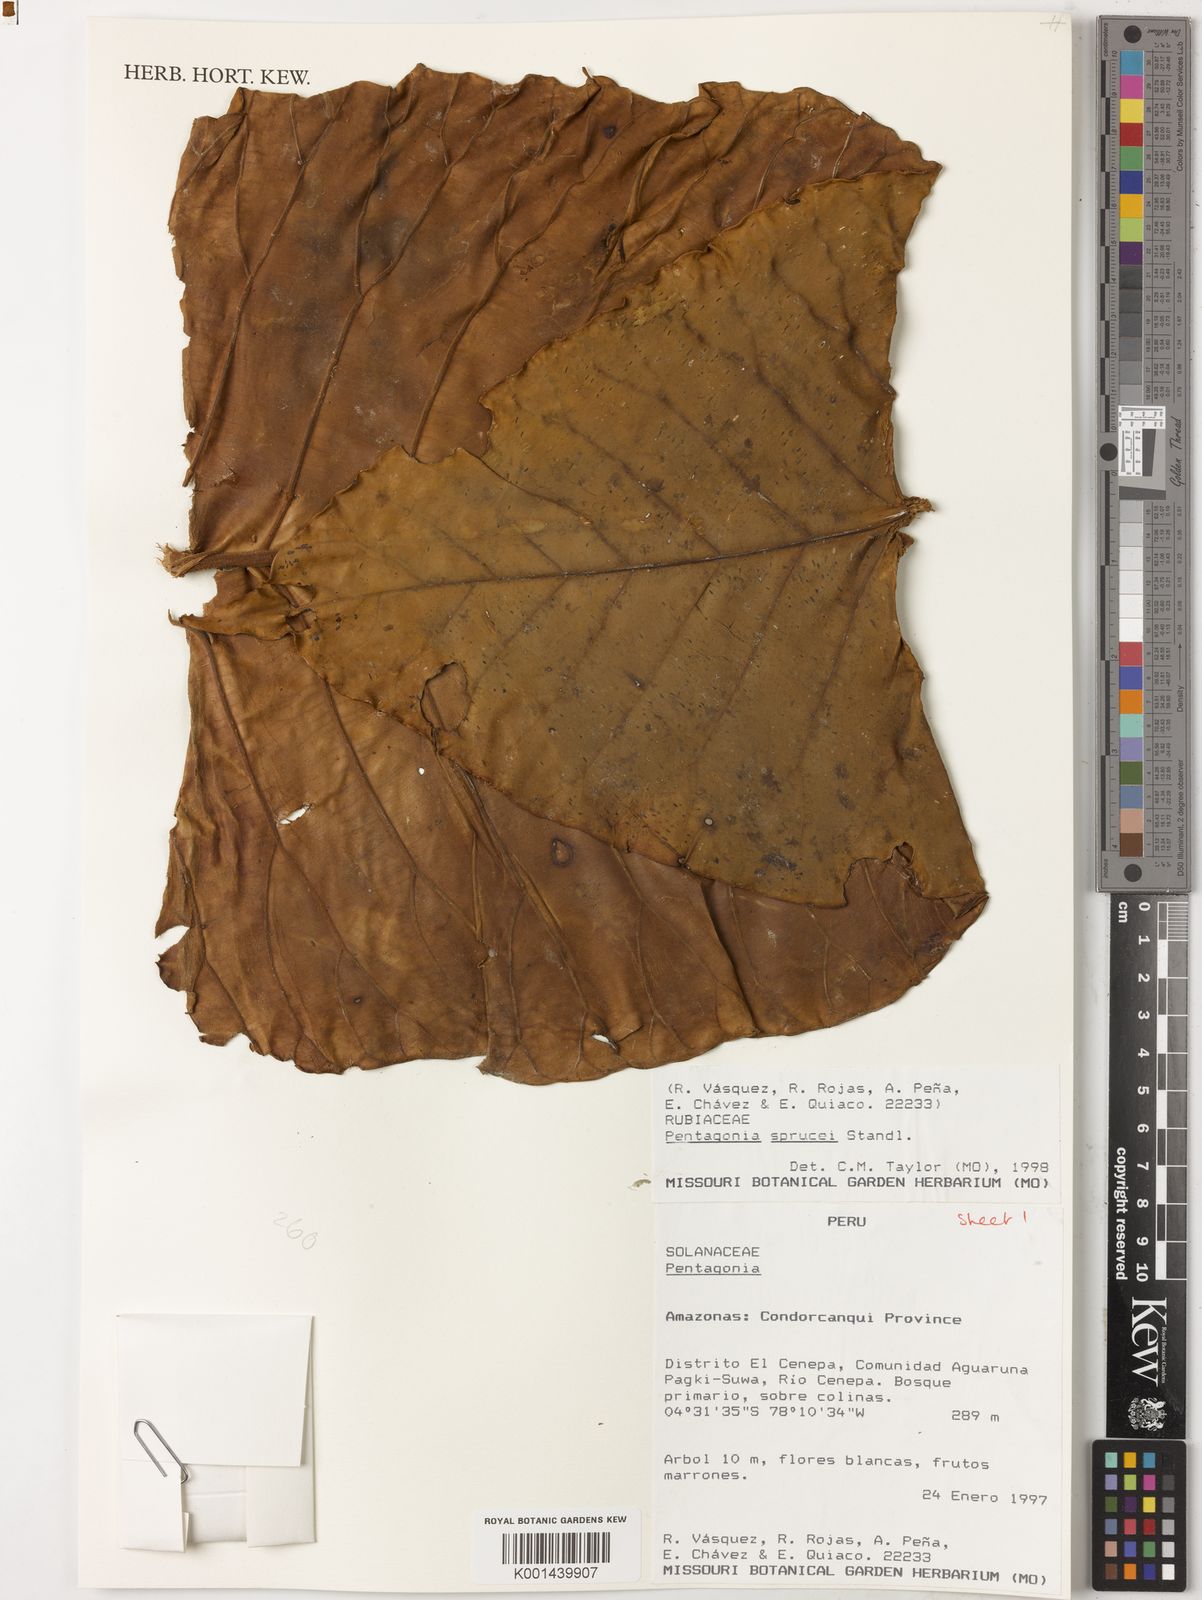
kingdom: Plantae
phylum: Tracheophyta
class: Magnoliopsida
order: Gentianales
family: Rubiaceae
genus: Pentagonia
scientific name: Pentagonia macrophylla
